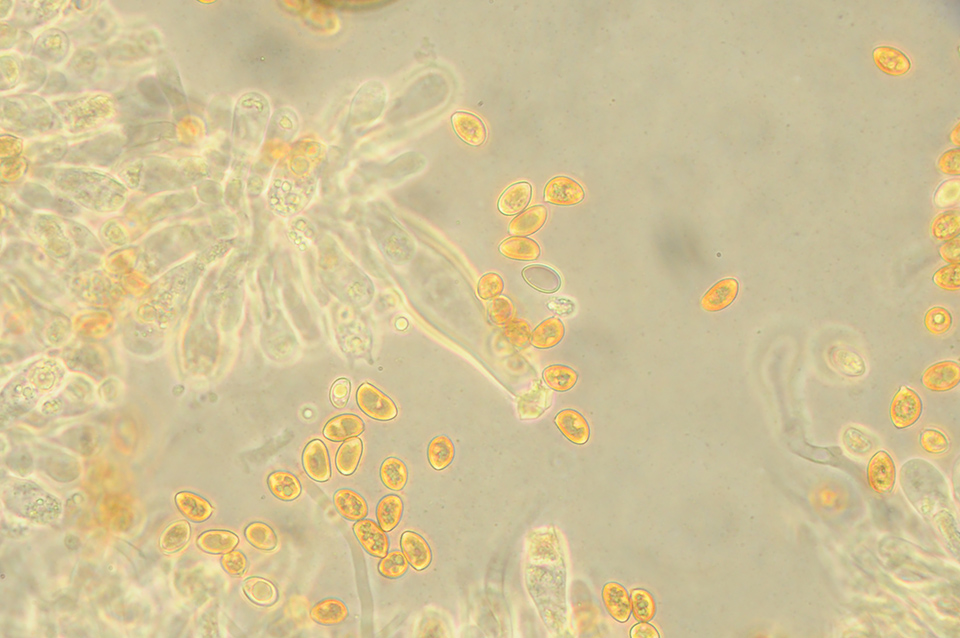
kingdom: Fungi
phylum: Basidiomycota
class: Agaricomycetes
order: Agaricales
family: Inocybaceae
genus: Inocybe
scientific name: Inocybe
